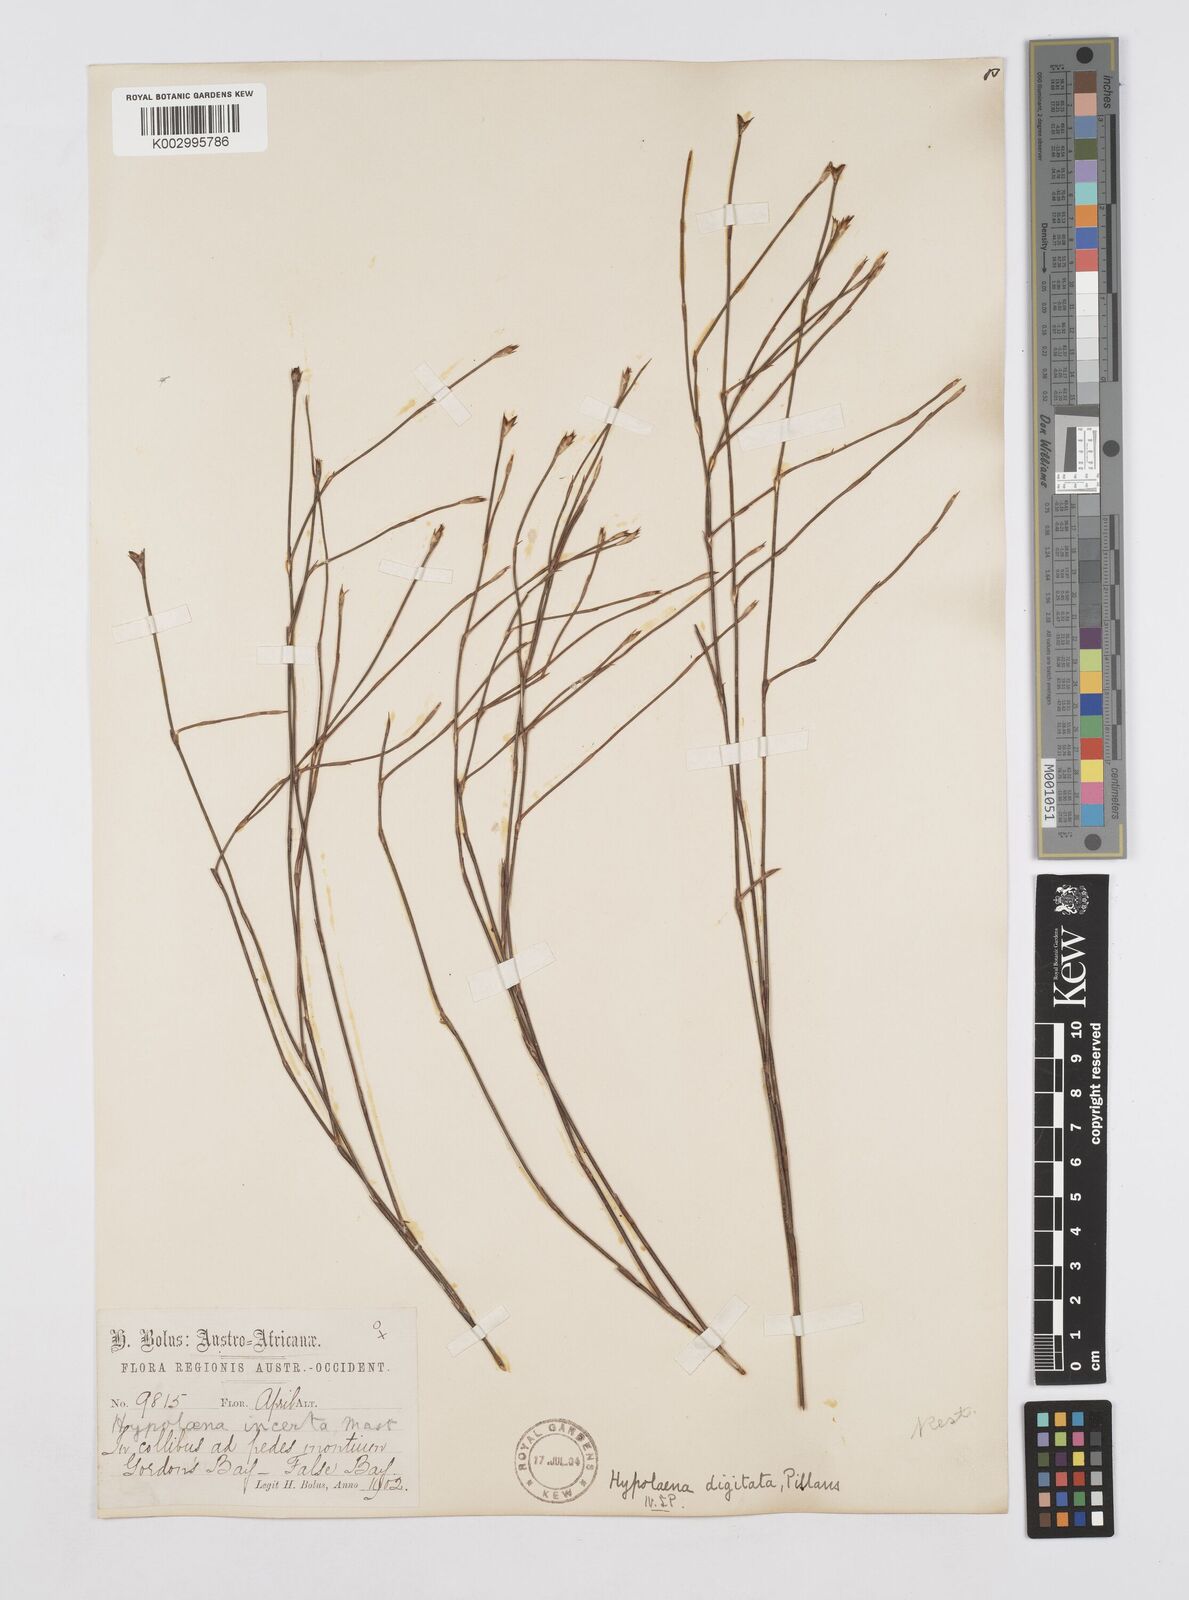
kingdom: Plantae
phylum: Tracheophyta
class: Liliopsida
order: Poales
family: Restionaceae
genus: Mastersiella
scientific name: Mastersiella digitata
